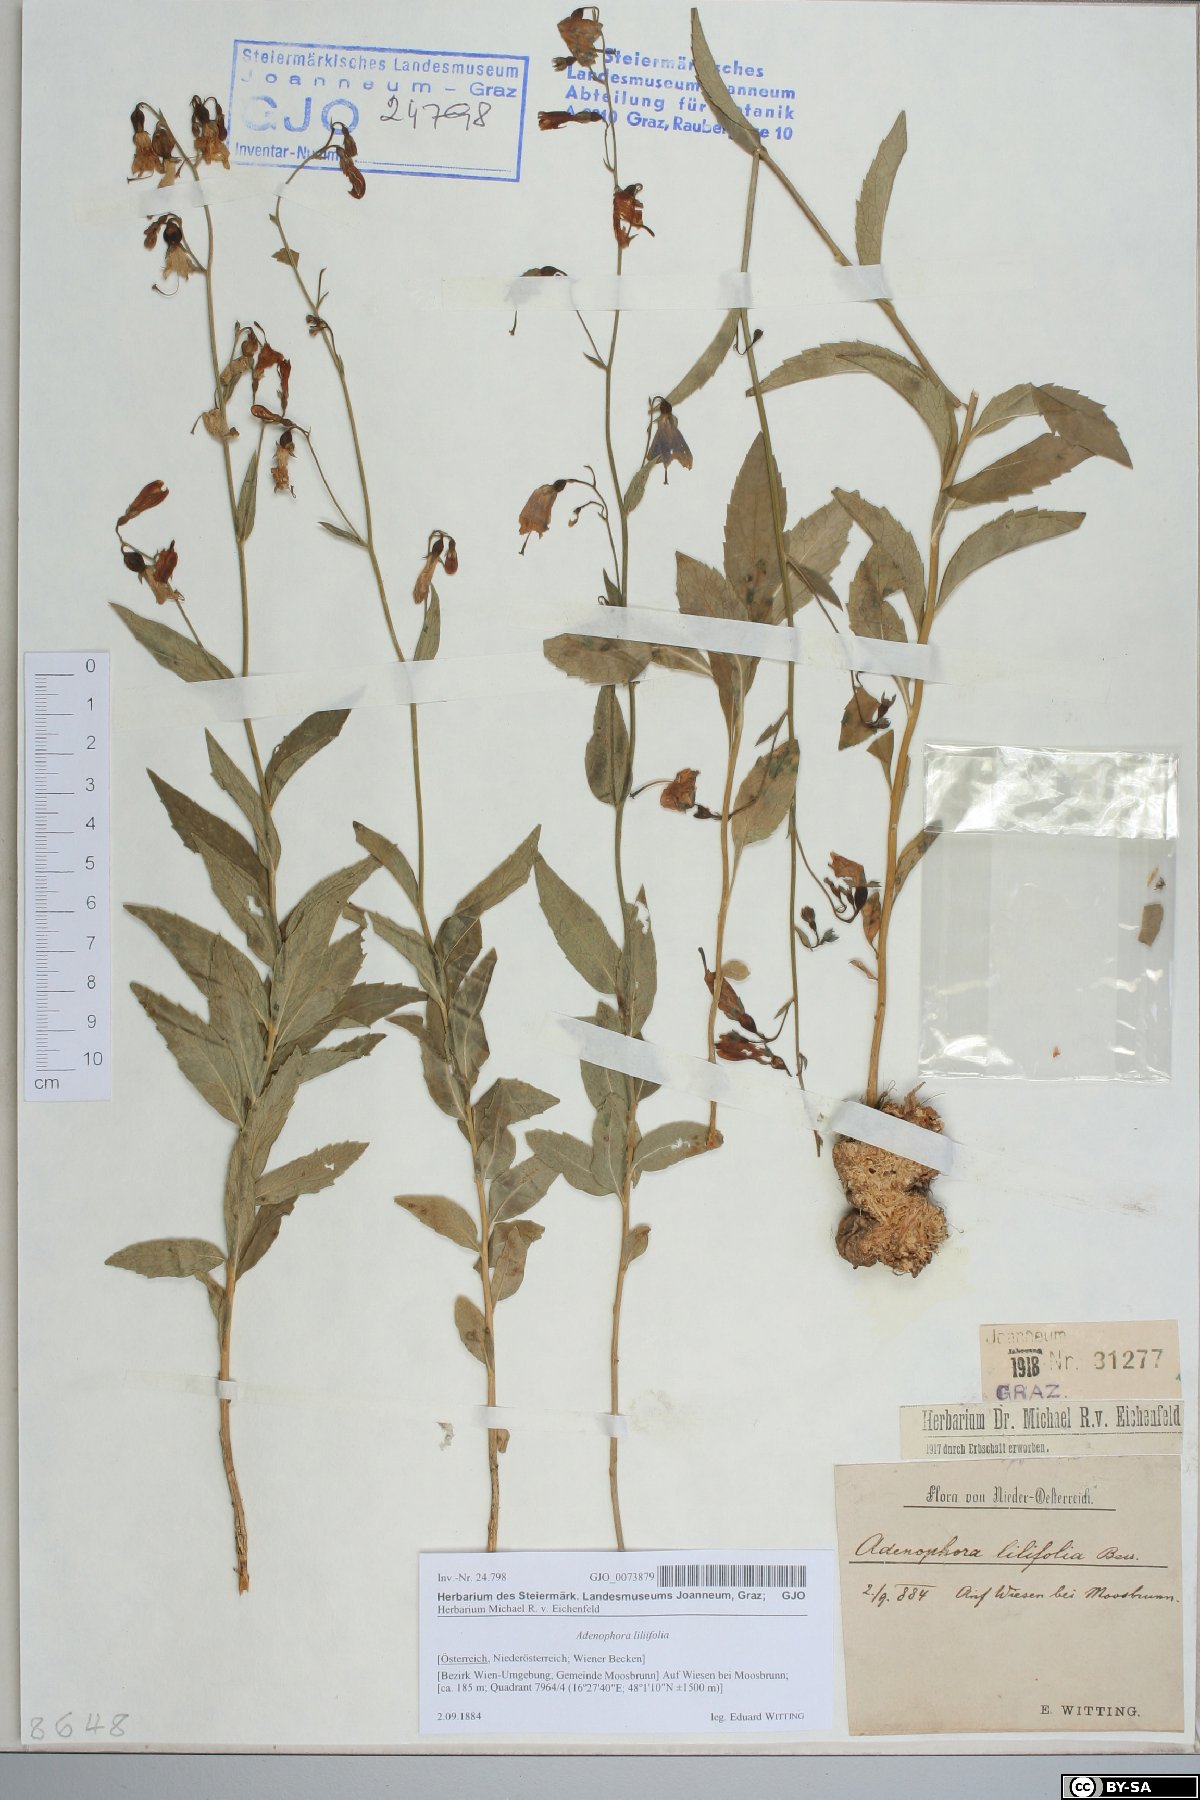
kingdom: Plantae
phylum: Tracheophyta
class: Magnoliopsida
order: Asterales
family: Campanulaceae
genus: Adenophora
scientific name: Adenophora liliifolia
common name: Lilyleaf ladybells
